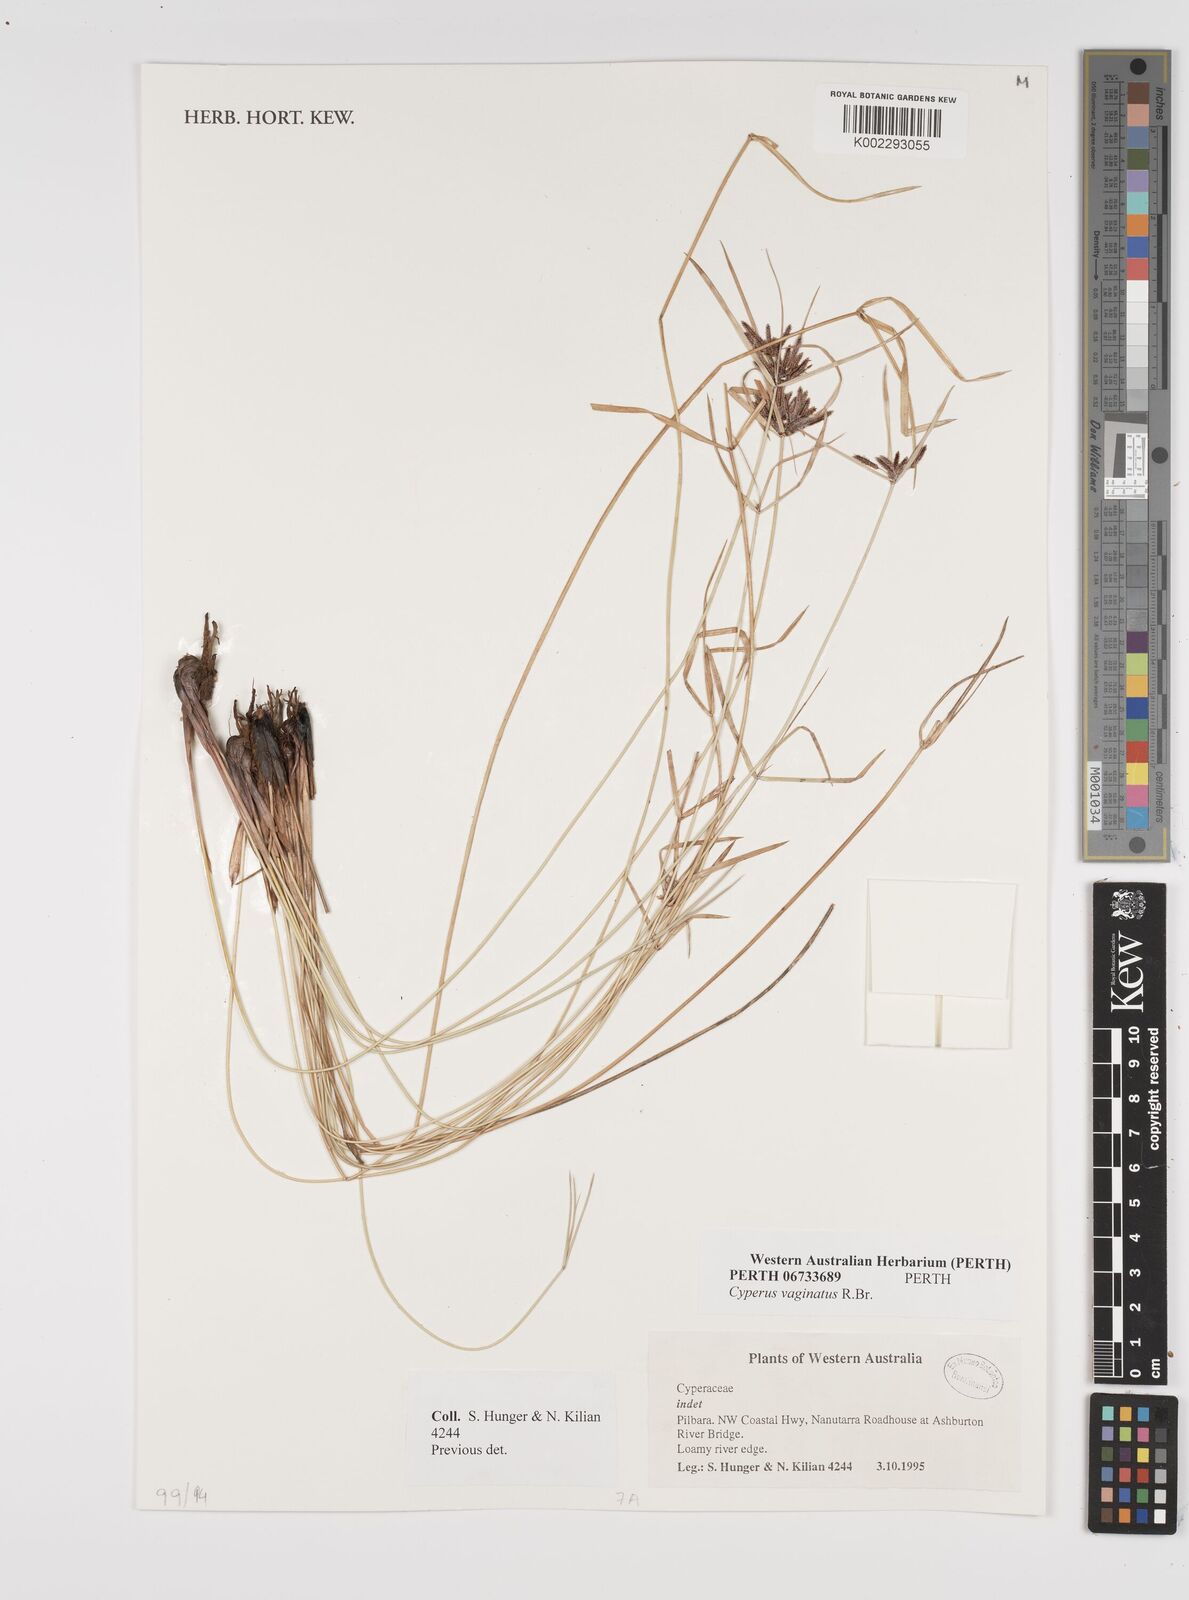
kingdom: Plantae
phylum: Tracheophyta
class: Liliopsida
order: Poales
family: Cyperaceae
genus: Cyperus
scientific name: Cyperus vaginatus
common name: Stiff-leaved flat-sedge
